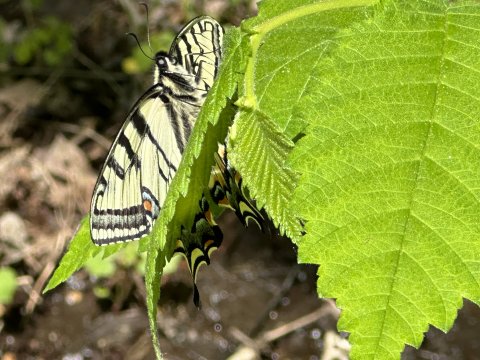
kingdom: Animalia
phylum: Arthropoda
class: Insecta
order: Lepidoptera
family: Papilionidae
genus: Pterourus
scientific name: Pterourus canadensis
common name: Canadian Tiger Swallowtail
